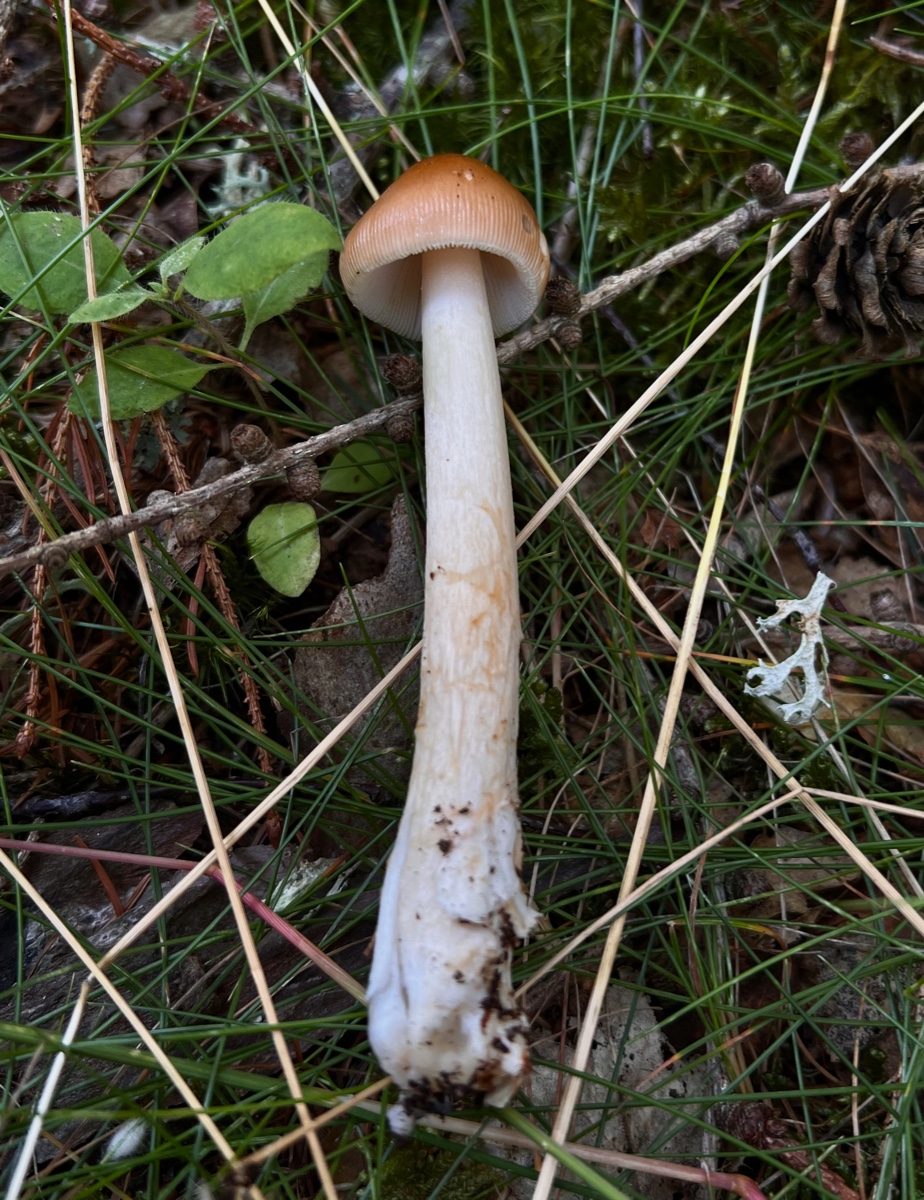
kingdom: Fungi
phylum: Basidiomycota
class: Agaricomycetes
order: Agaricales
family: Amanitaceae
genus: Amanita
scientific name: Amanita fulva
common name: brun kam-fluesvamp
